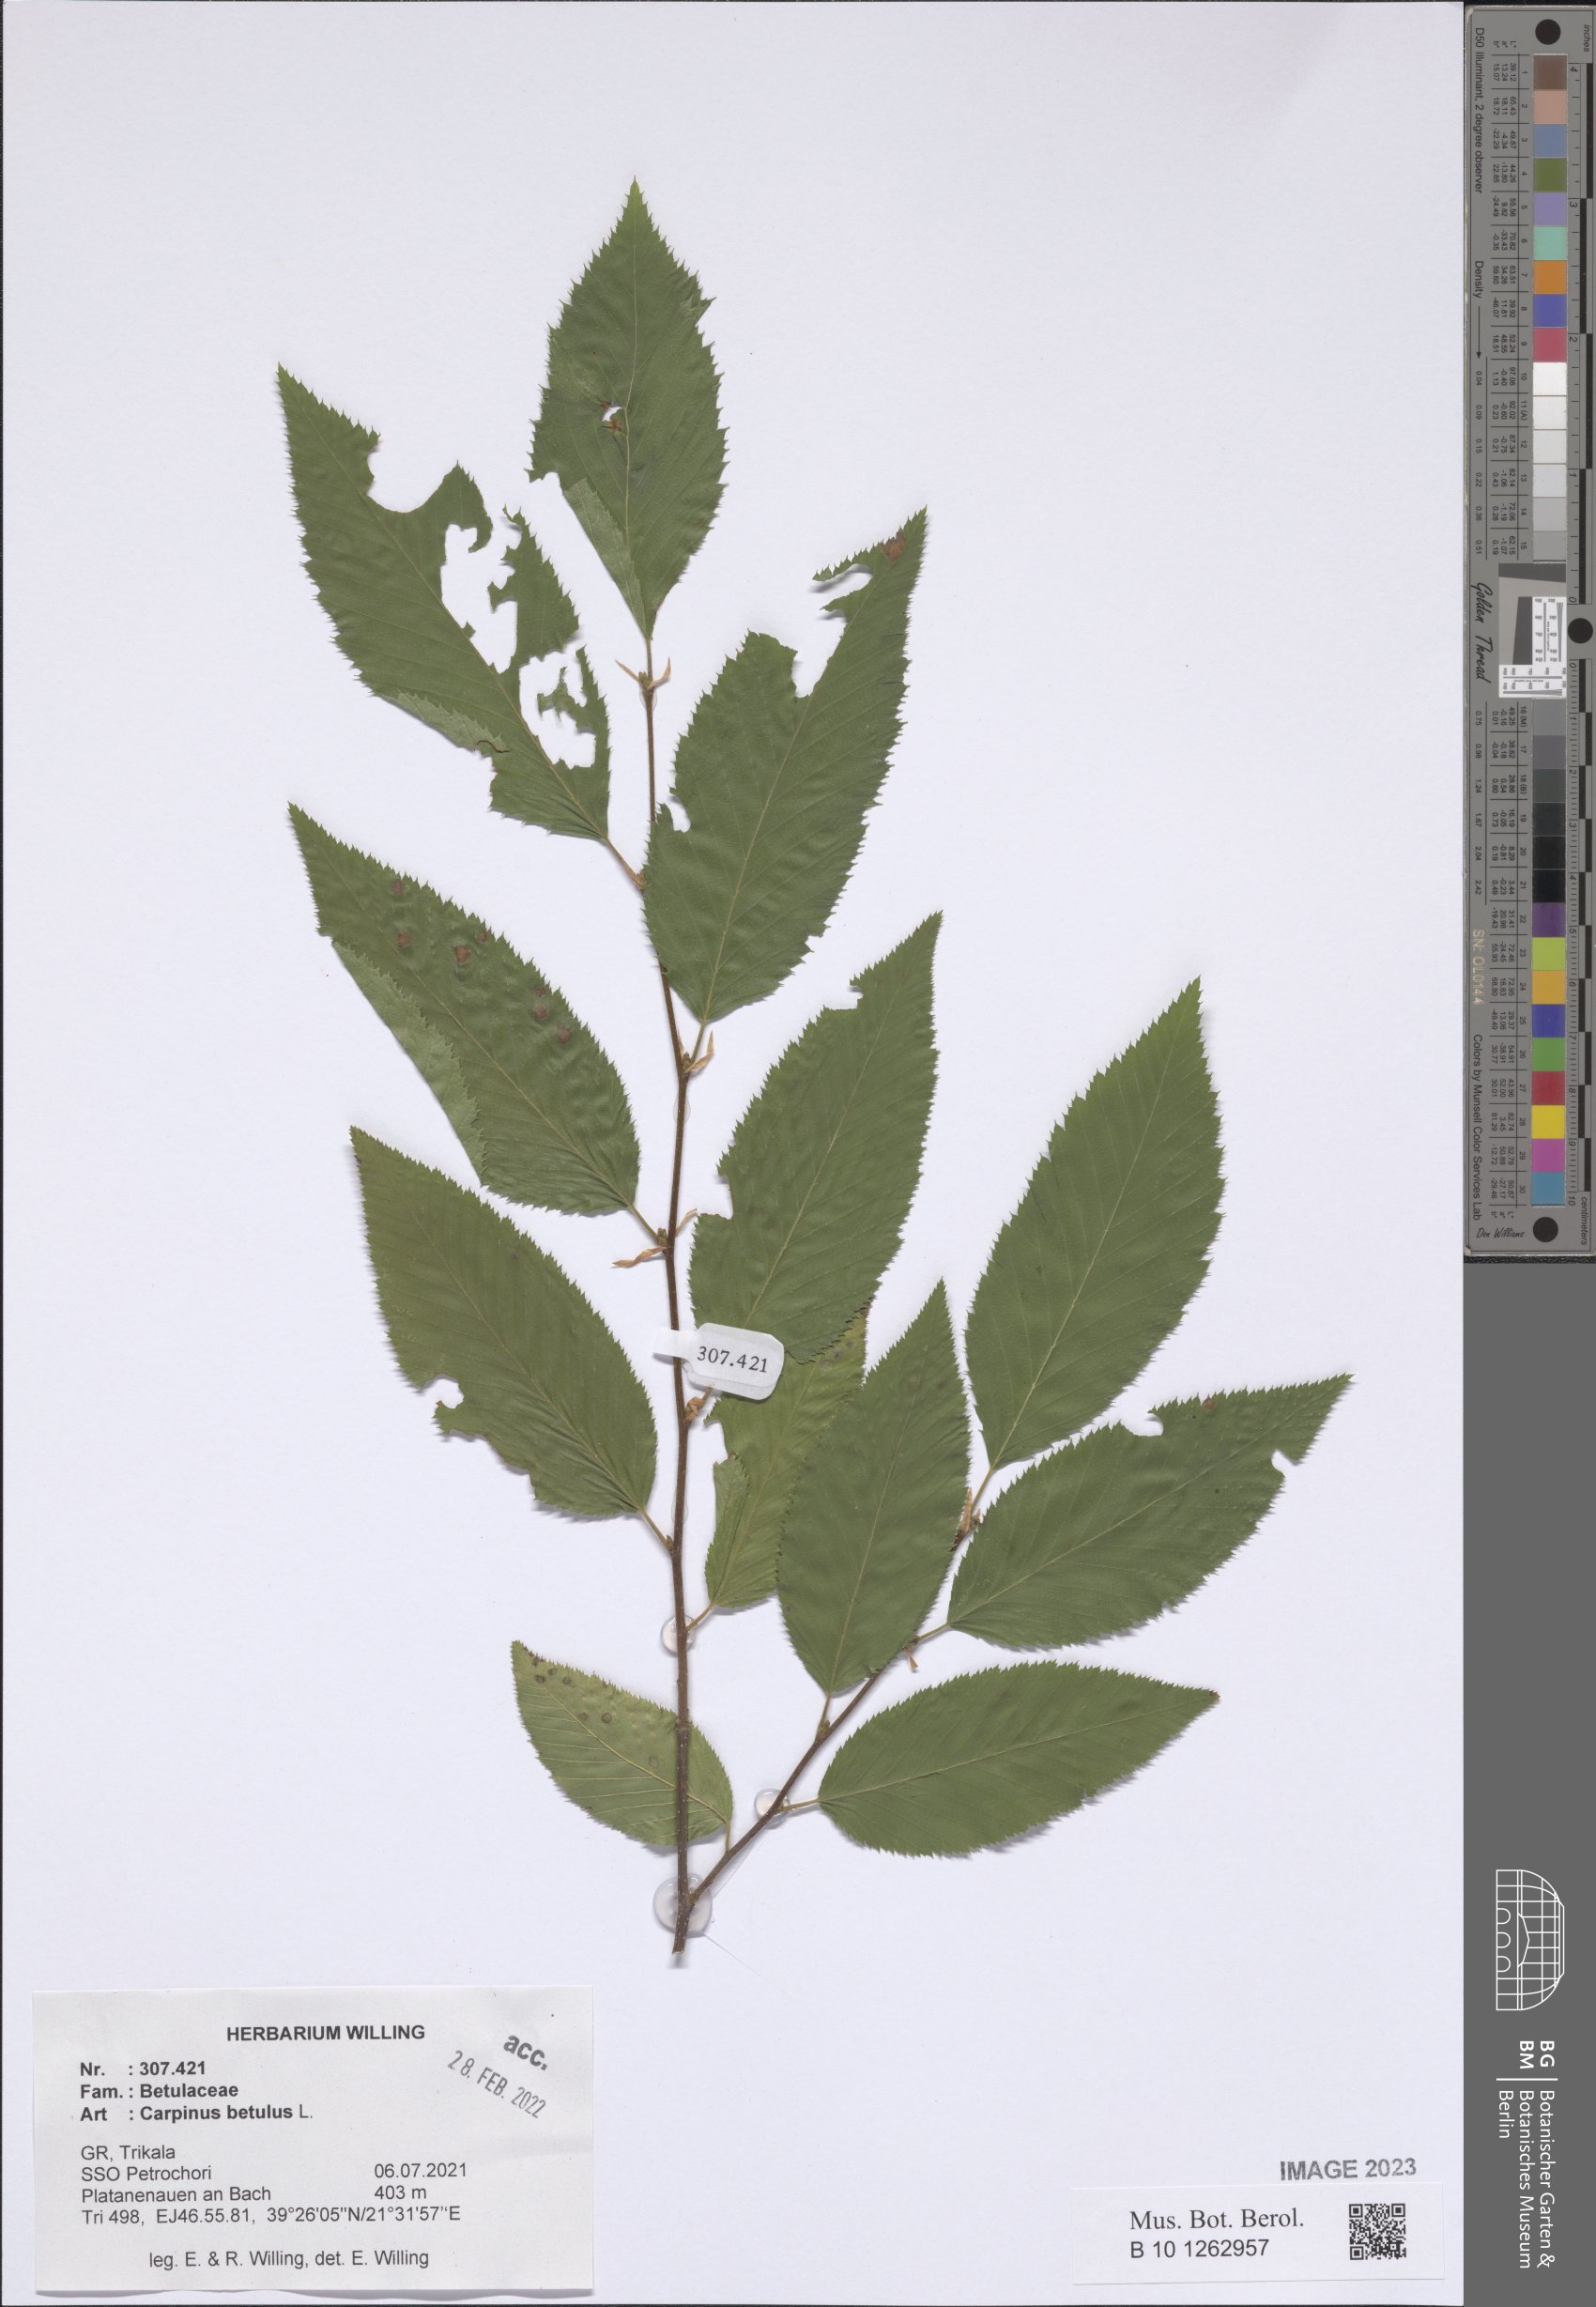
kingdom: Plantae
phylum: Tracheophyta
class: Magnoliopsida
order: Fagales
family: Betulaceae
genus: Carpinus
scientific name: Carpinus betulus
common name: Hornbeam
